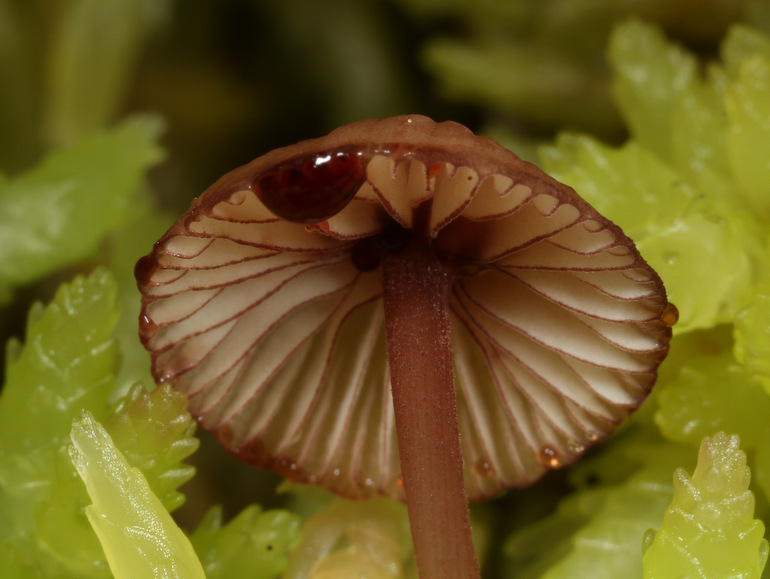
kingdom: Fungi
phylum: Basidiomycota
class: Agaricomycetes
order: Agaricales
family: Mycenaceae
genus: Mycena
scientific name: Mycena sanguinolenta
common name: rødmælket huesvamp
